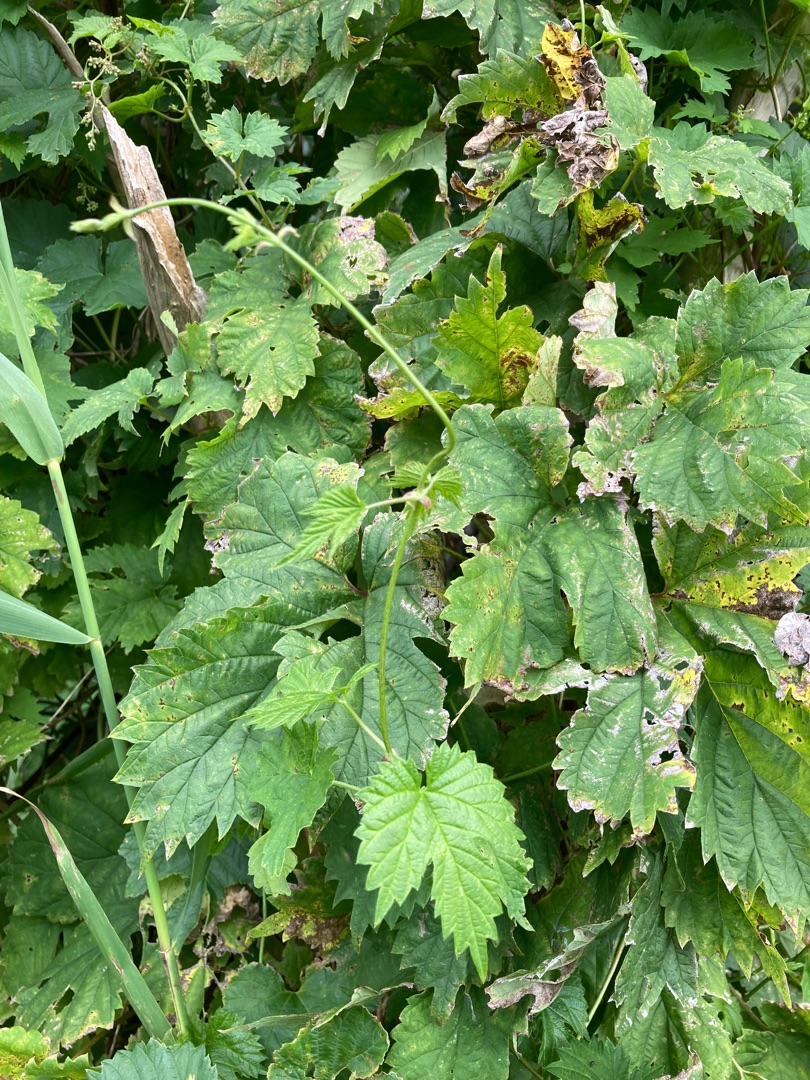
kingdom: Plantae
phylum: Tracheophyta
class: Magnoliopsida
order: Rosales
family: Cannabaceae
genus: Humulus
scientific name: Humulus lupulus
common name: Humle
